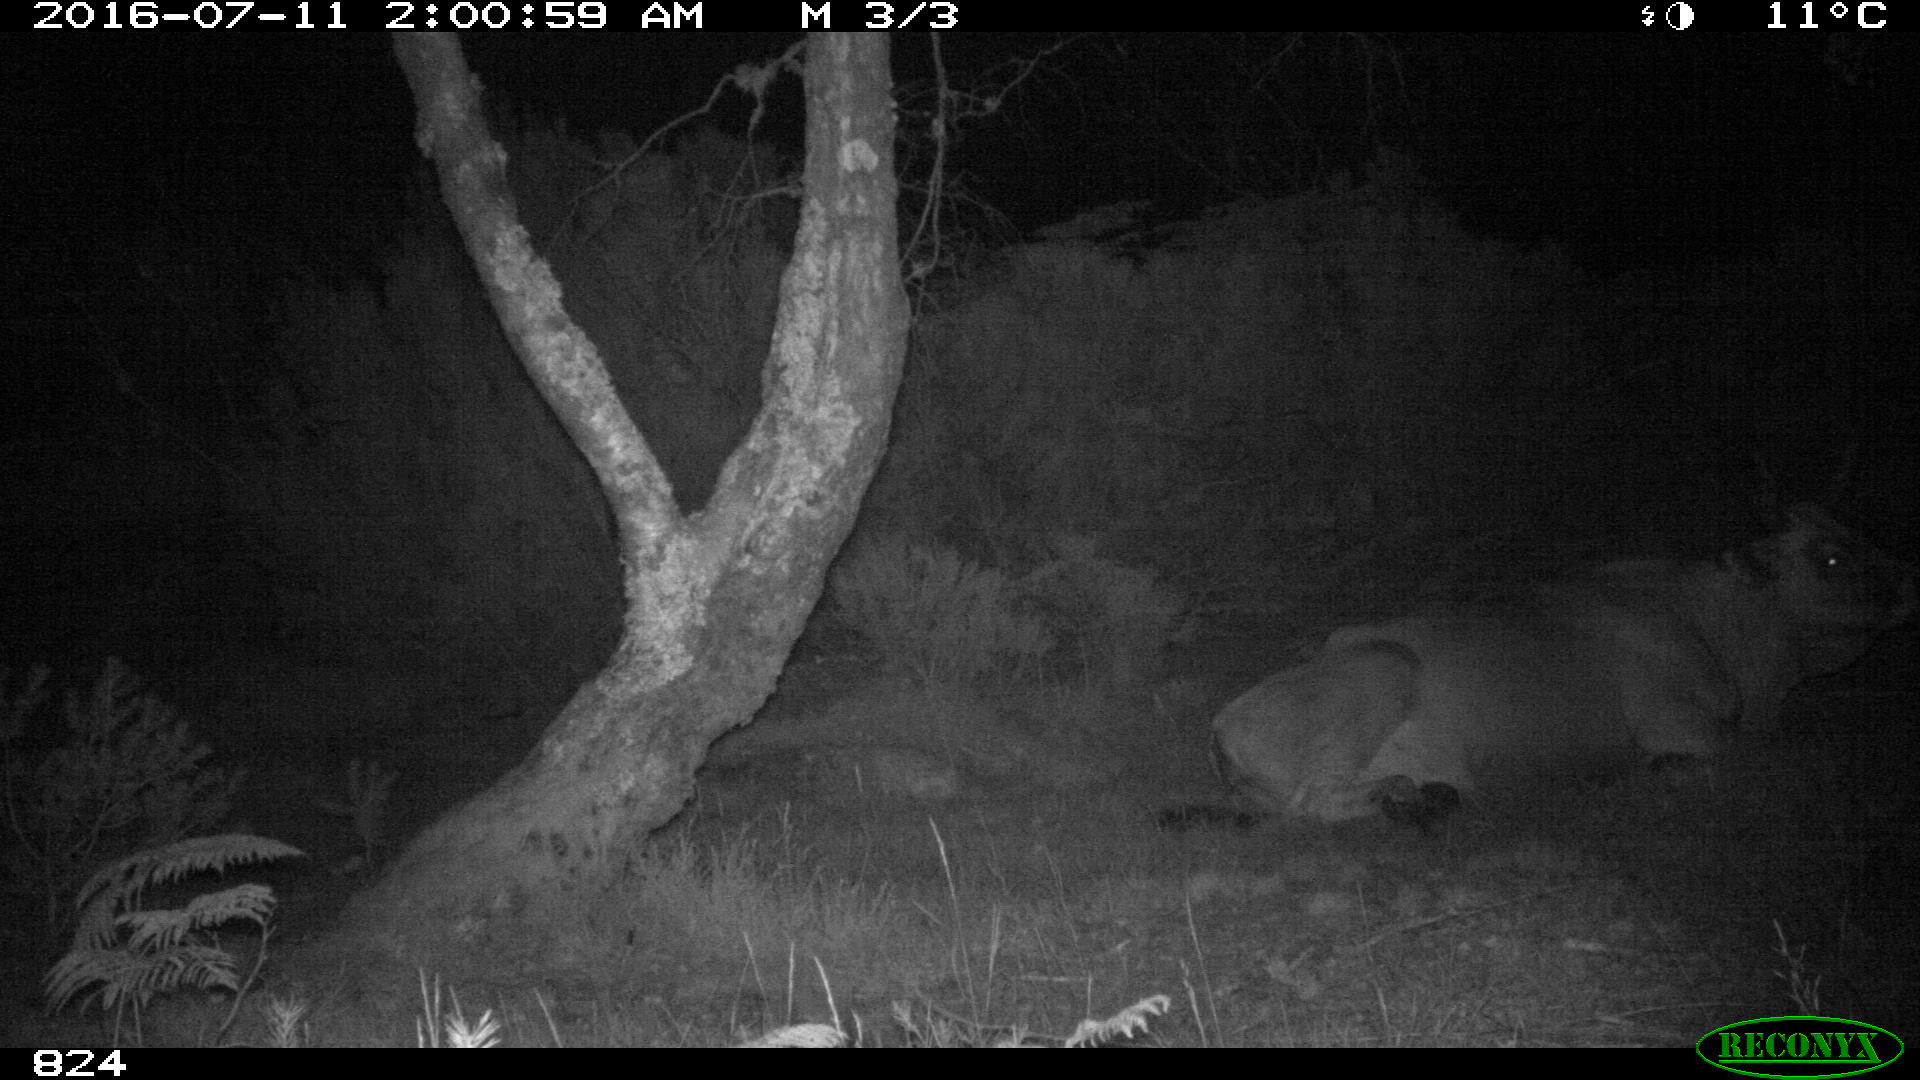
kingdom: Animalia
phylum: Chordata
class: Mammalia
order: Artiodactyla
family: Bovidae
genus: Bos
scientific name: Bos taurus
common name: Domesticated cattle
